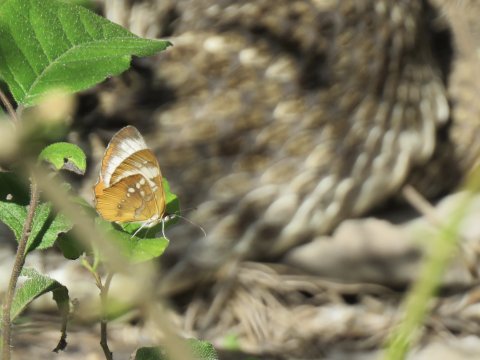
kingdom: Animalia
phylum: Arthropoda
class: Insecta
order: Lepidoptera
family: Nymphalidae
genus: Mestra
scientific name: Mestra amymone
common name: Common Mestra
